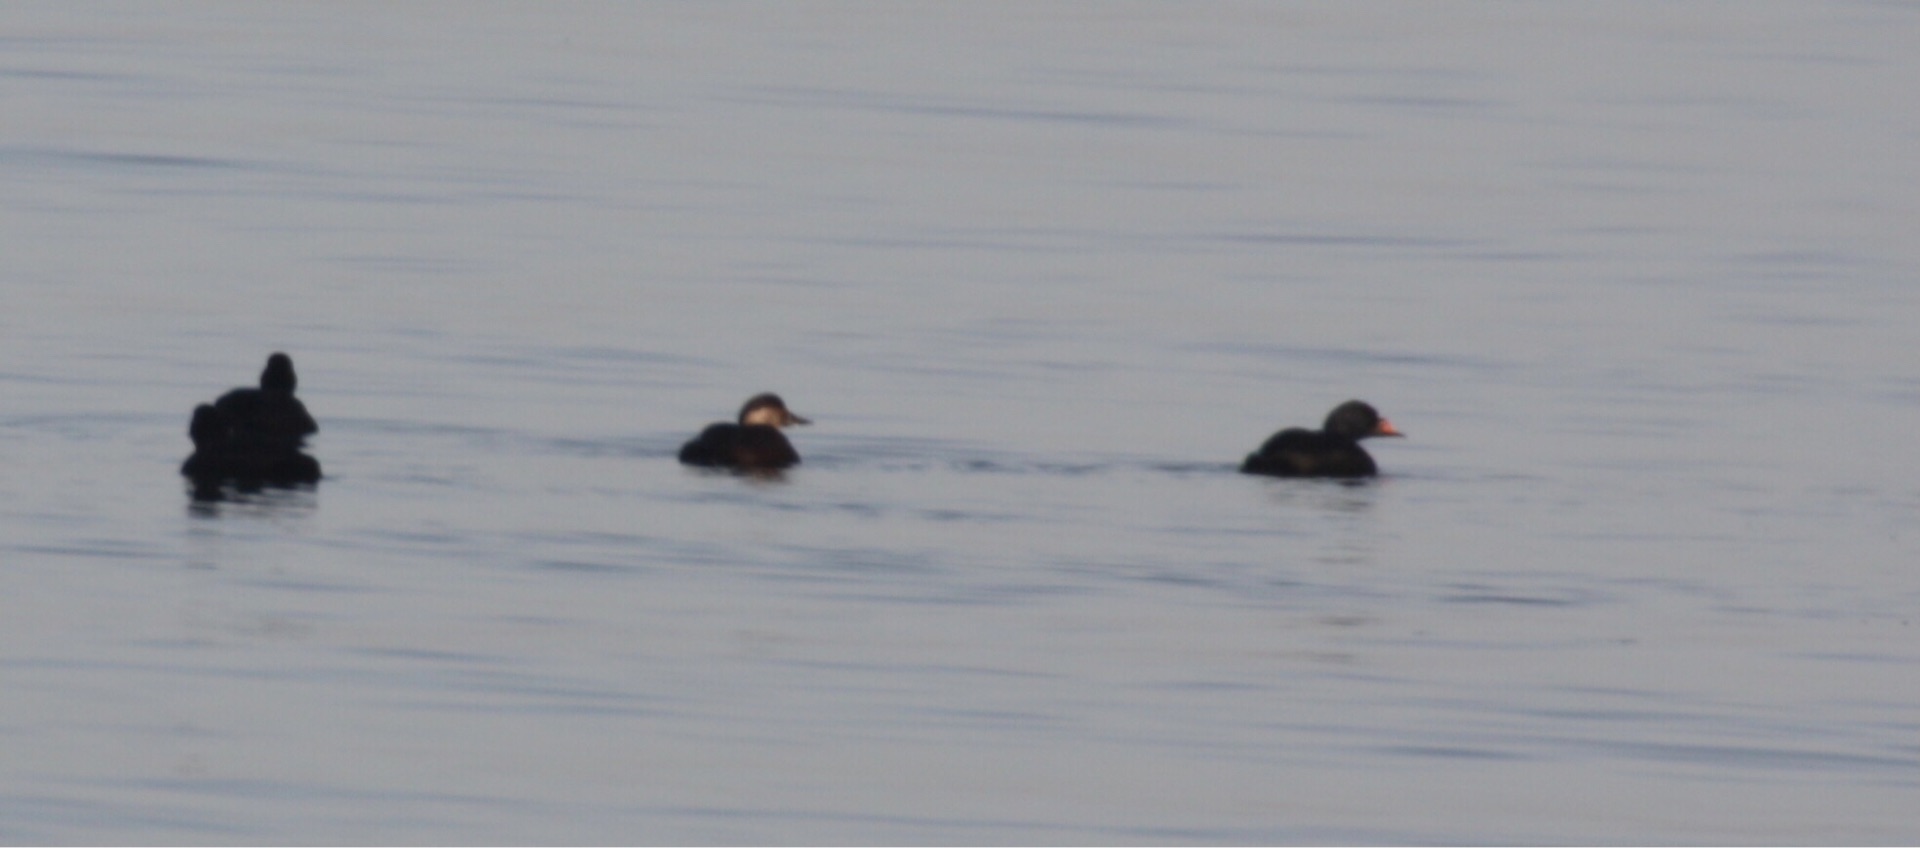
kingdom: Animalia
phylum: Chordata
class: Aves
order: Anseriformes
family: Anatidae
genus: Melanitta
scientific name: Melanitta nigra
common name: Sortand
